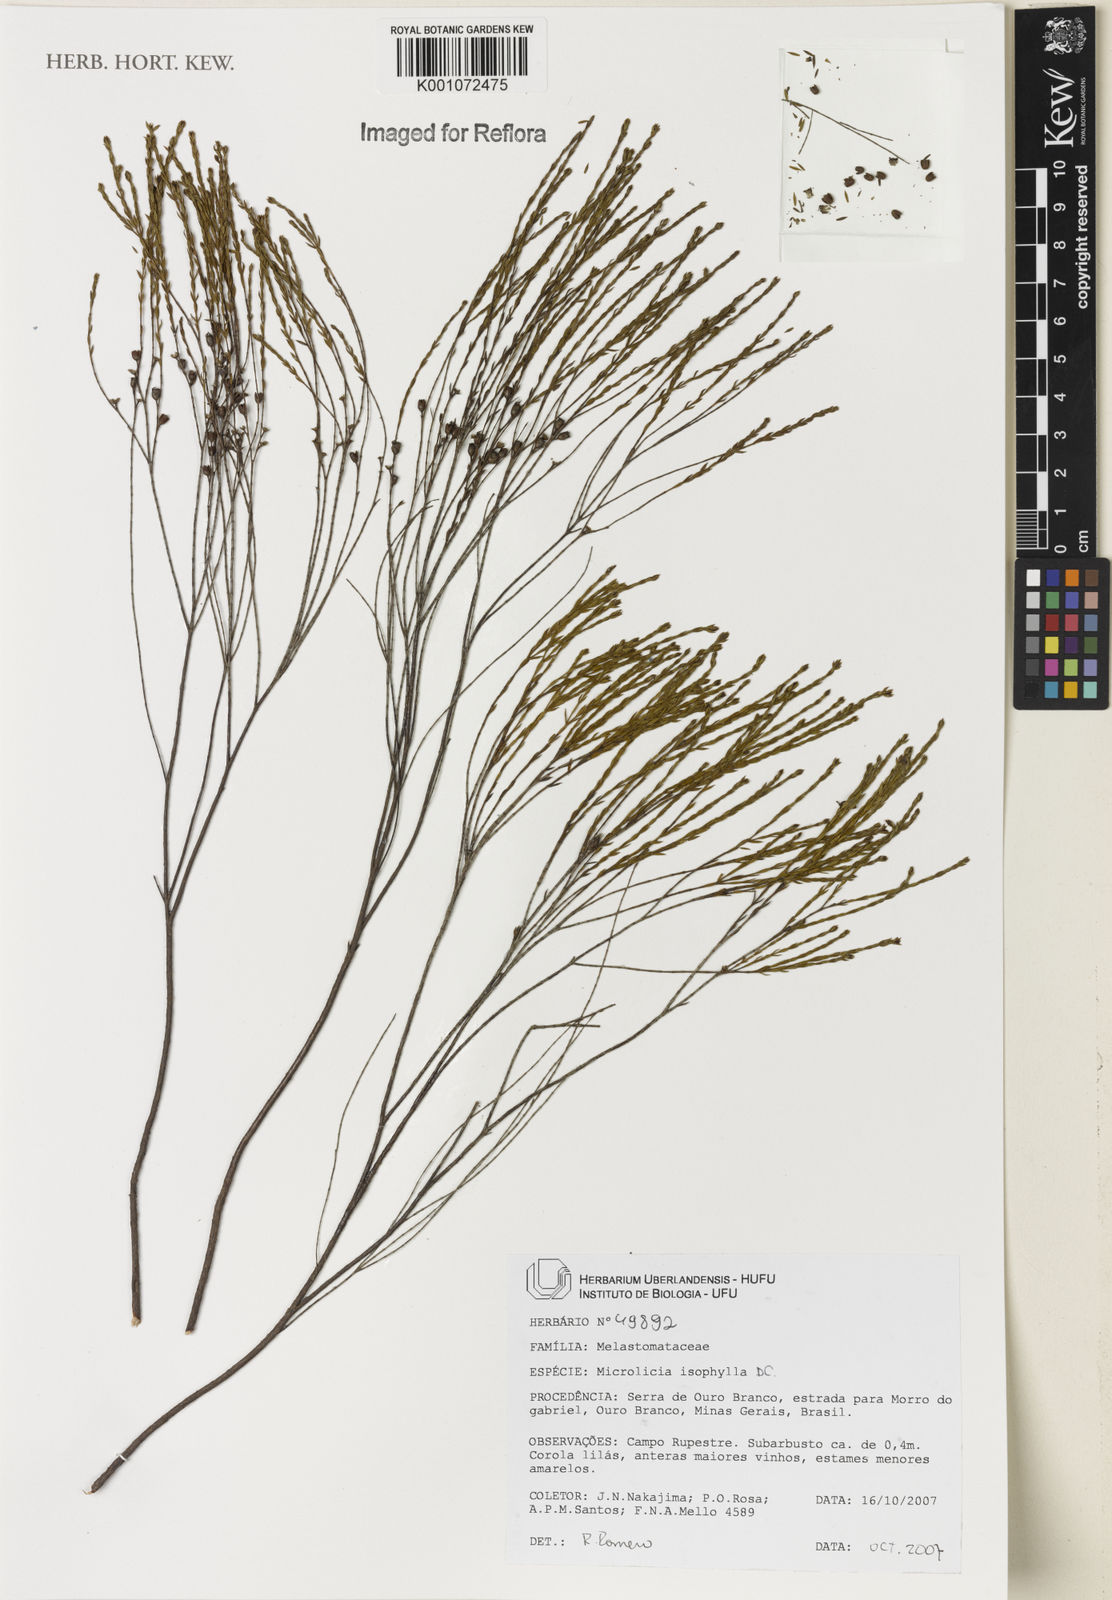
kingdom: Plantae
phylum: Tracheophyta
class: Magnoliopsida
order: Myrtales
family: Melastomataceae
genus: Microlicia
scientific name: Microlicia isophylla
